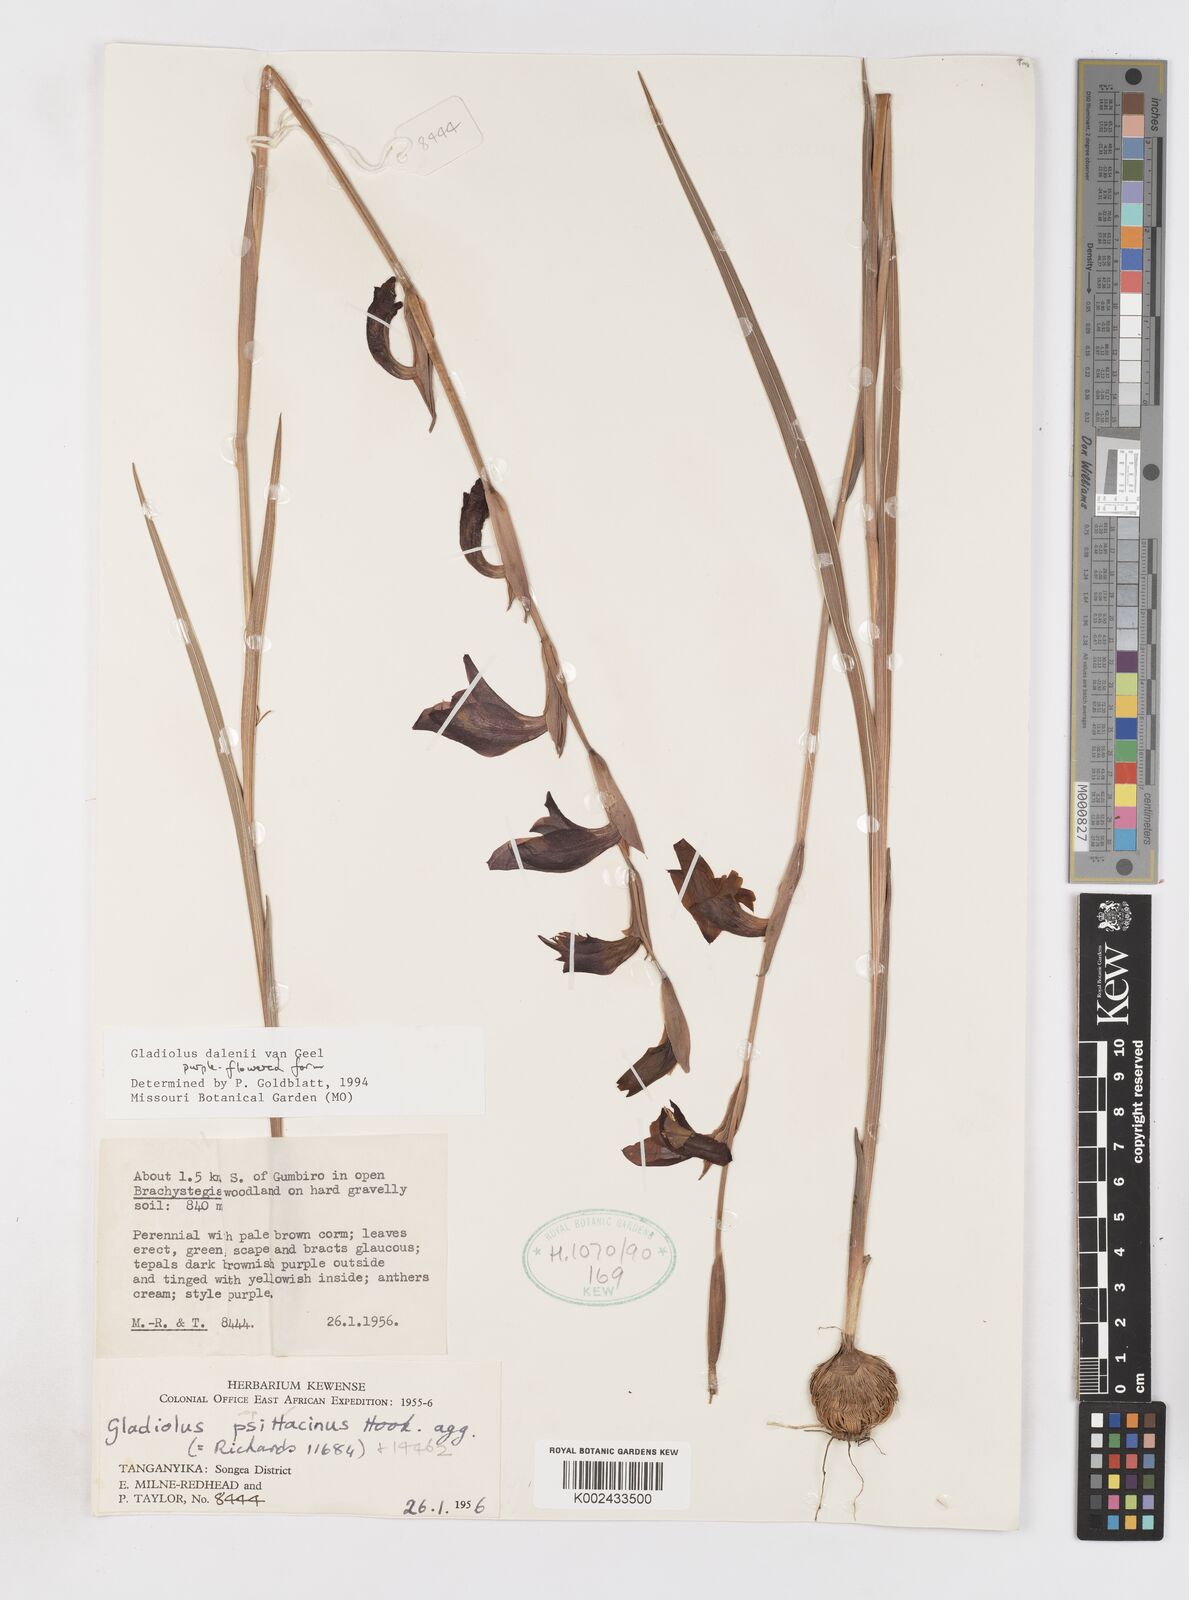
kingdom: Plantae
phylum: Tracheophyta
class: Liliopsida
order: Asparagales
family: Iridaceae
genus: Gladiolus
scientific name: Gladiolus dalenii
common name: Cornflag
